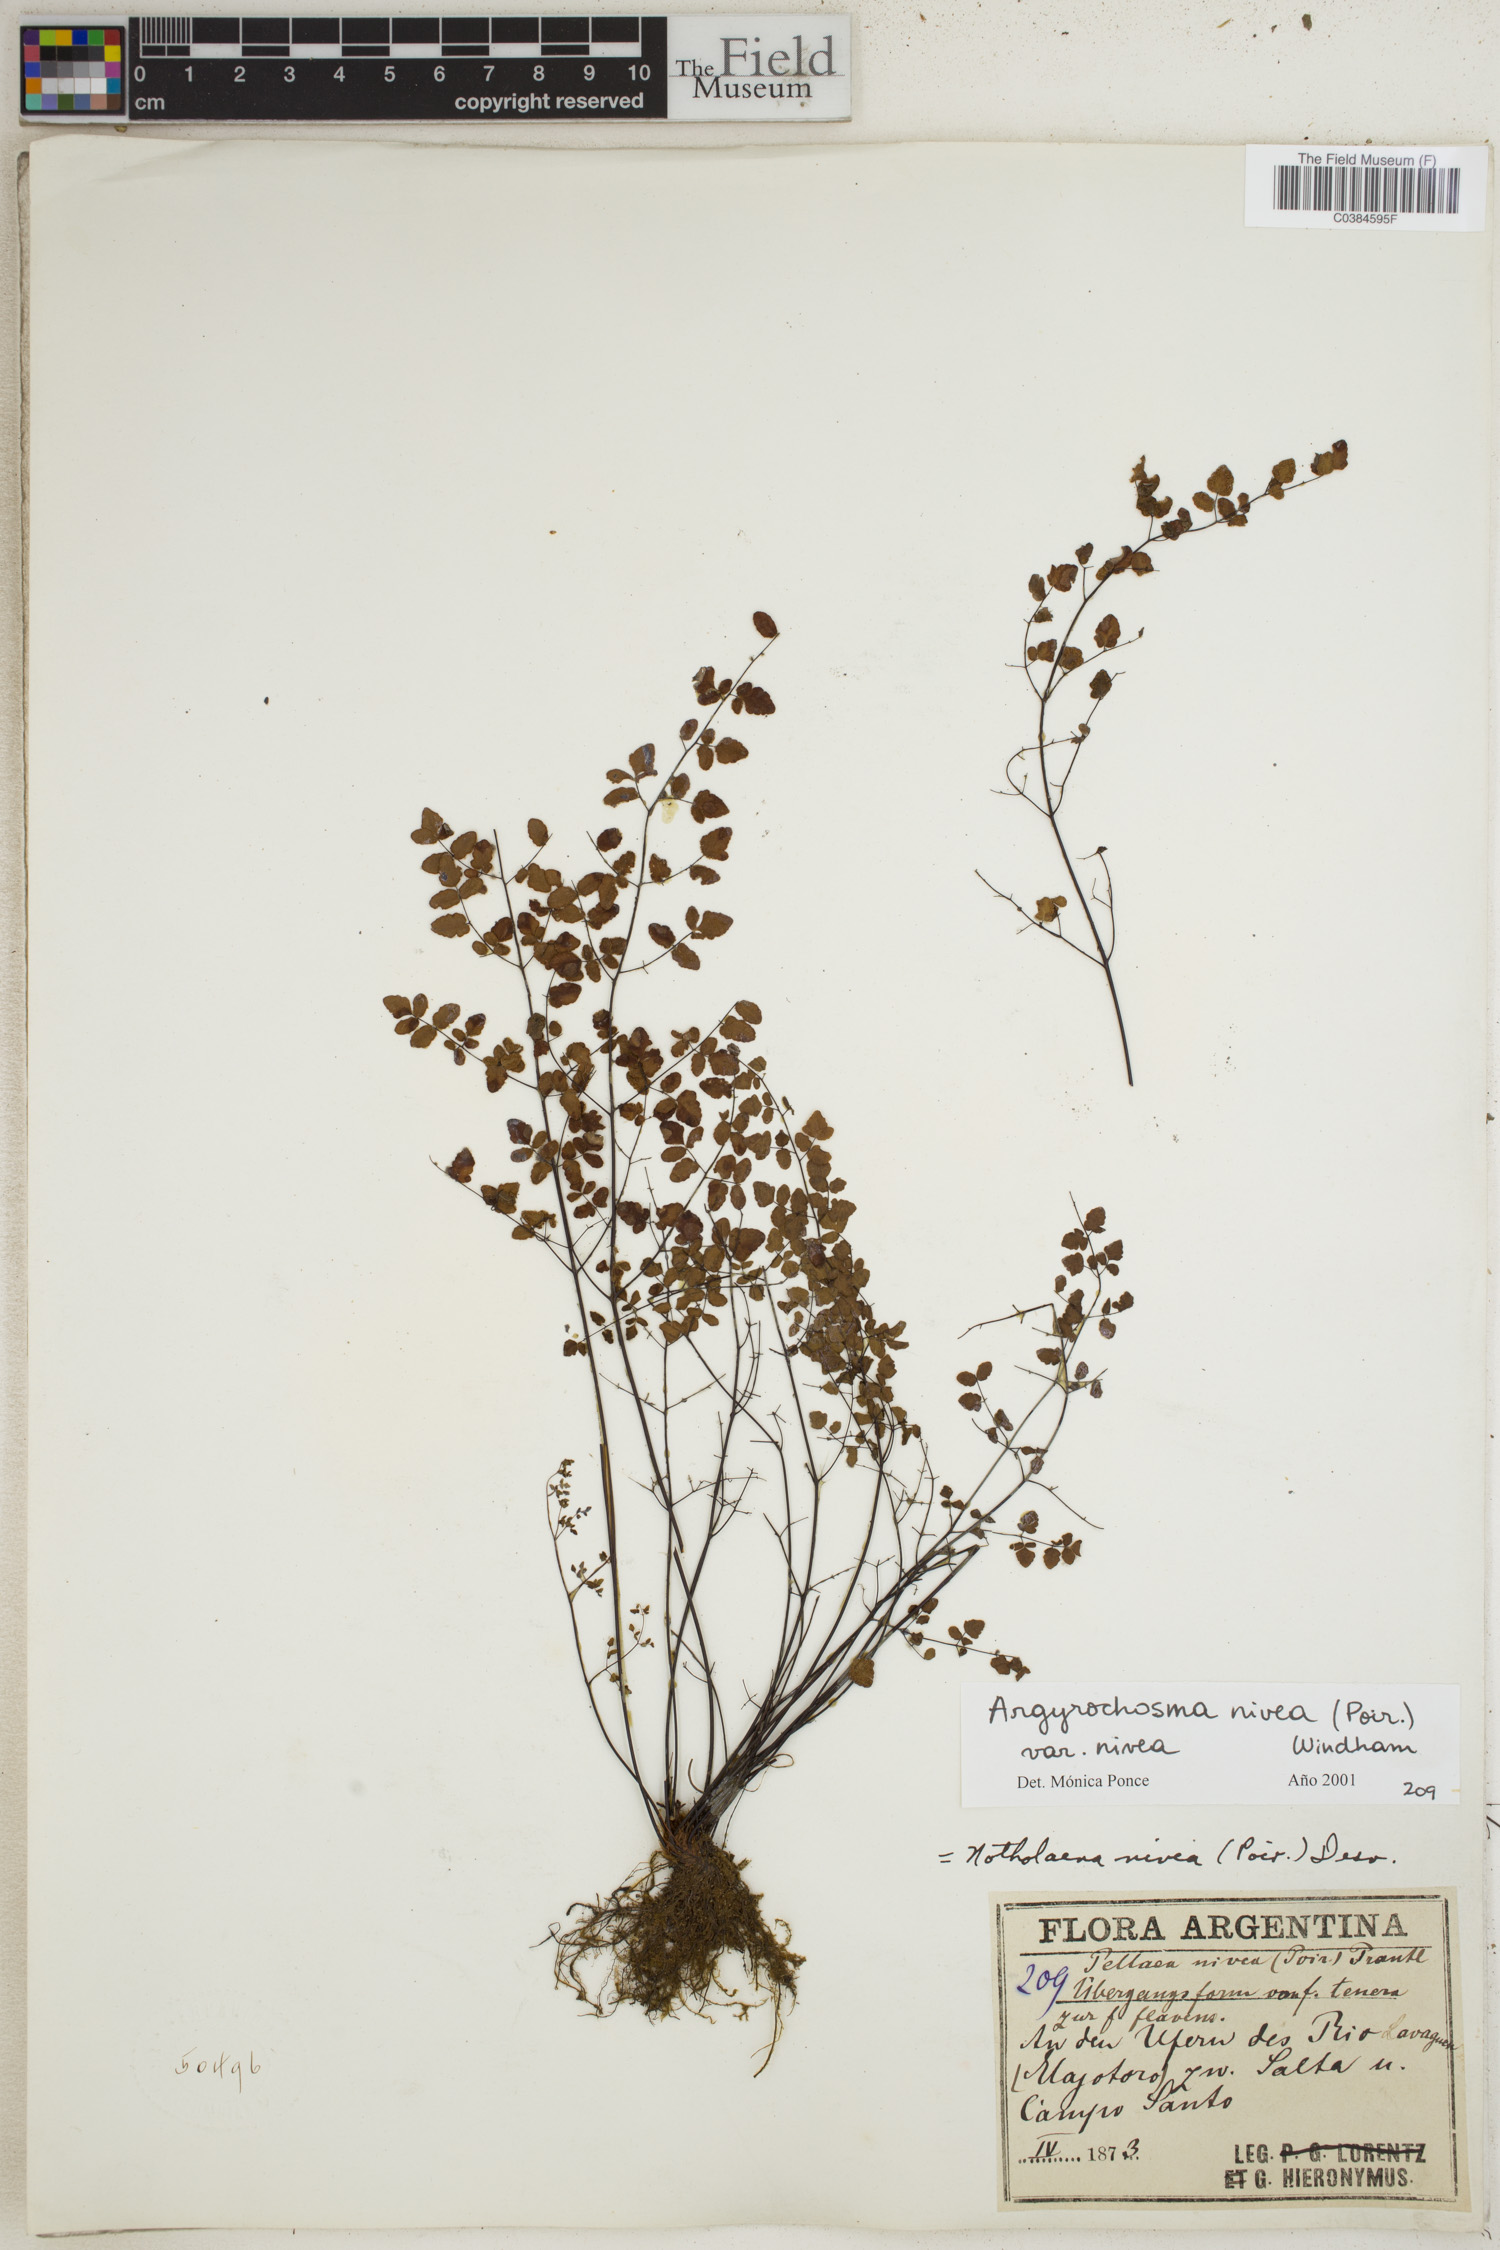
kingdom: Plantae
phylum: Tracheophyta
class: Polypodiopsida
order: Polypodiales
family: Pteridaceae
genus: Argyrochosma
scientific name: Argyrochosma nivea
